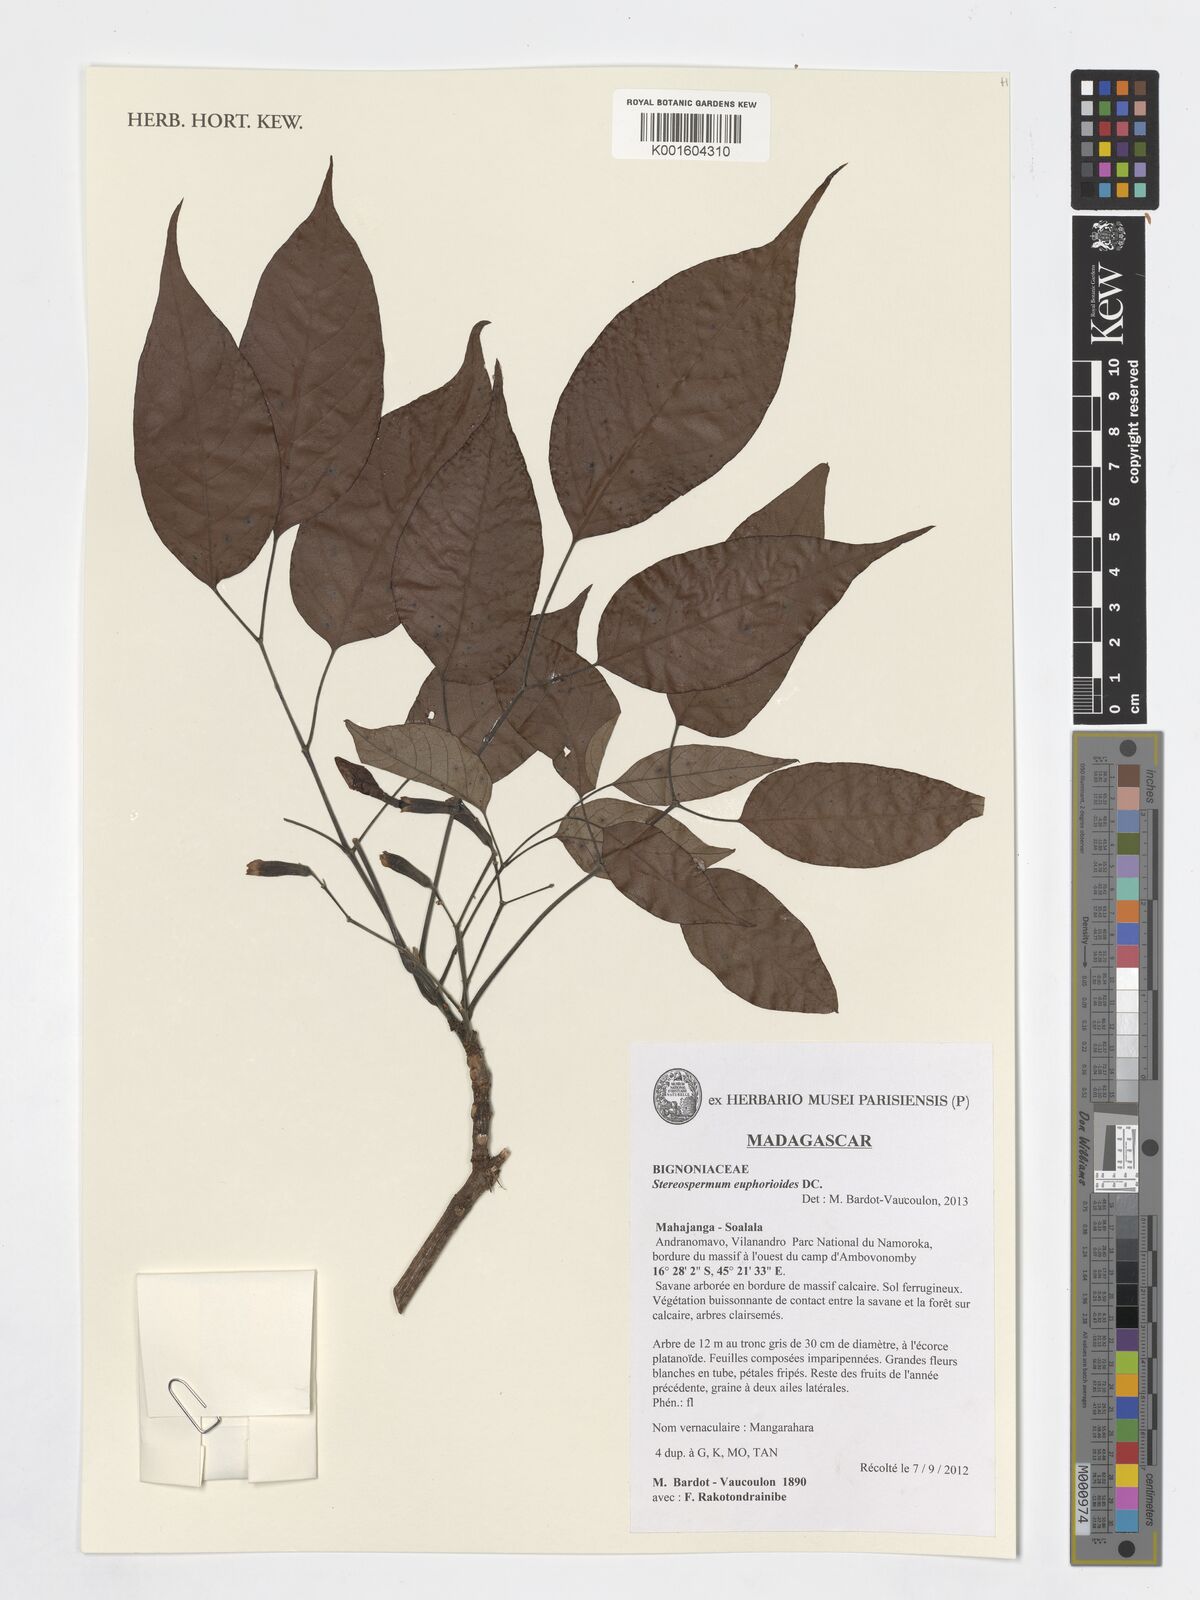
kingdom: Plantae
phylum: Tracheophyta
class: Magnoliopsida
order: Lamiales
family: Bignoniaceae
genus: Stereospermum
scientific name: Stereospermum euphorioides
